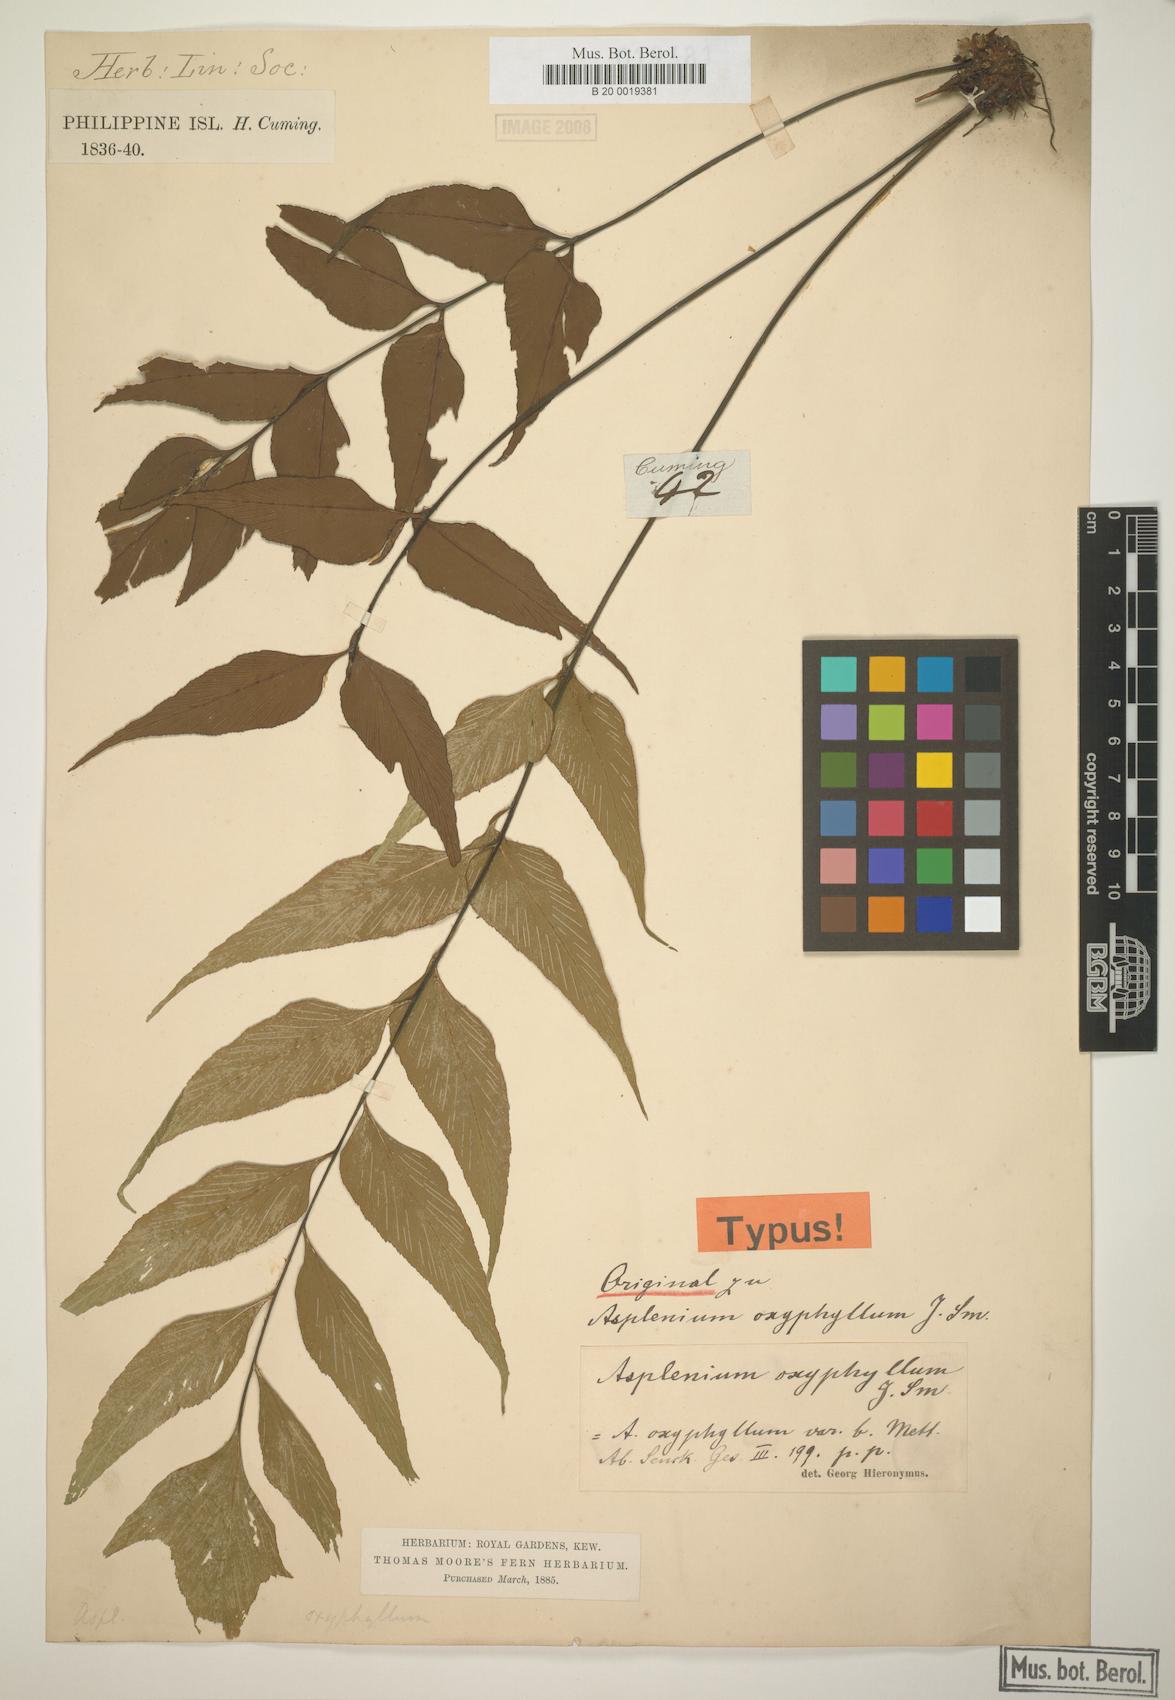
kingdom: Plantae
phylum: Tracheophyta
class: Polypodiopsida
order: Polypodiales
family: Athyriaceae
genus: Athyrium
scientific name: Athyrium puncticaule
